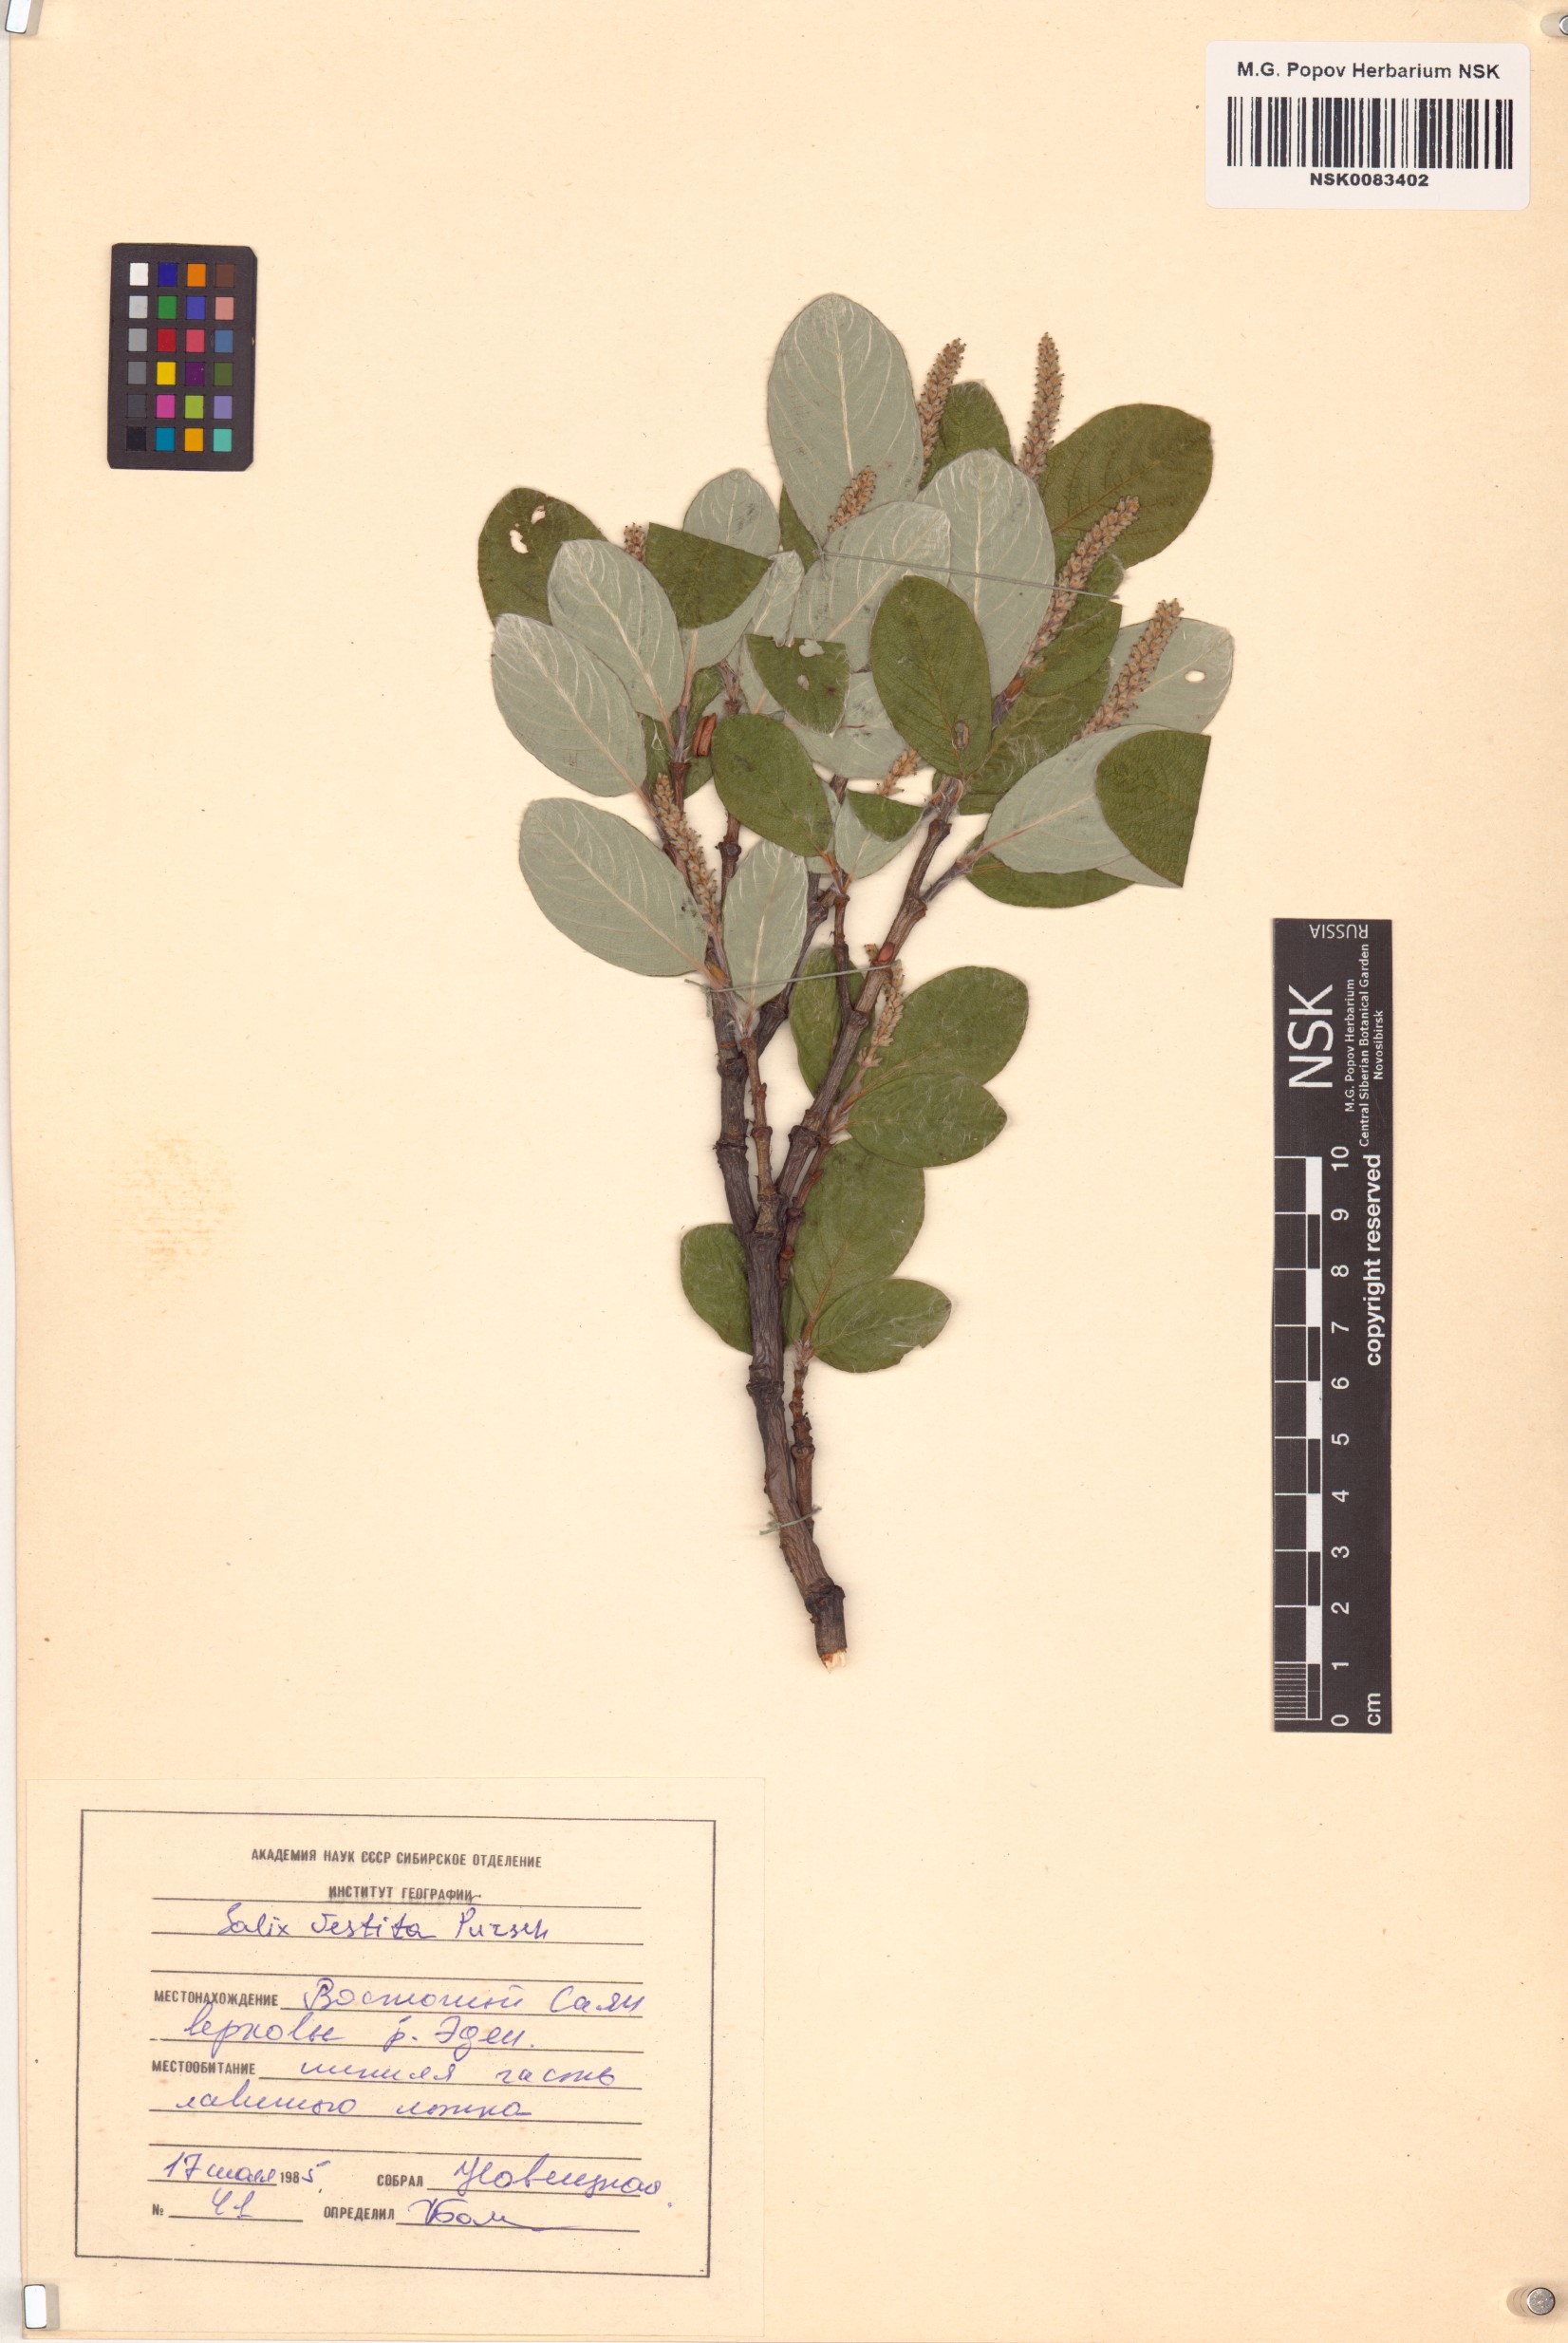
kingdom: Plantae
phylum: Tracheophyta
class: Magnoliopsida
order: Malpighiales
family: Salicaceae
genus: Salix
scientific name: Salix vestita
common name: Hairy willow
